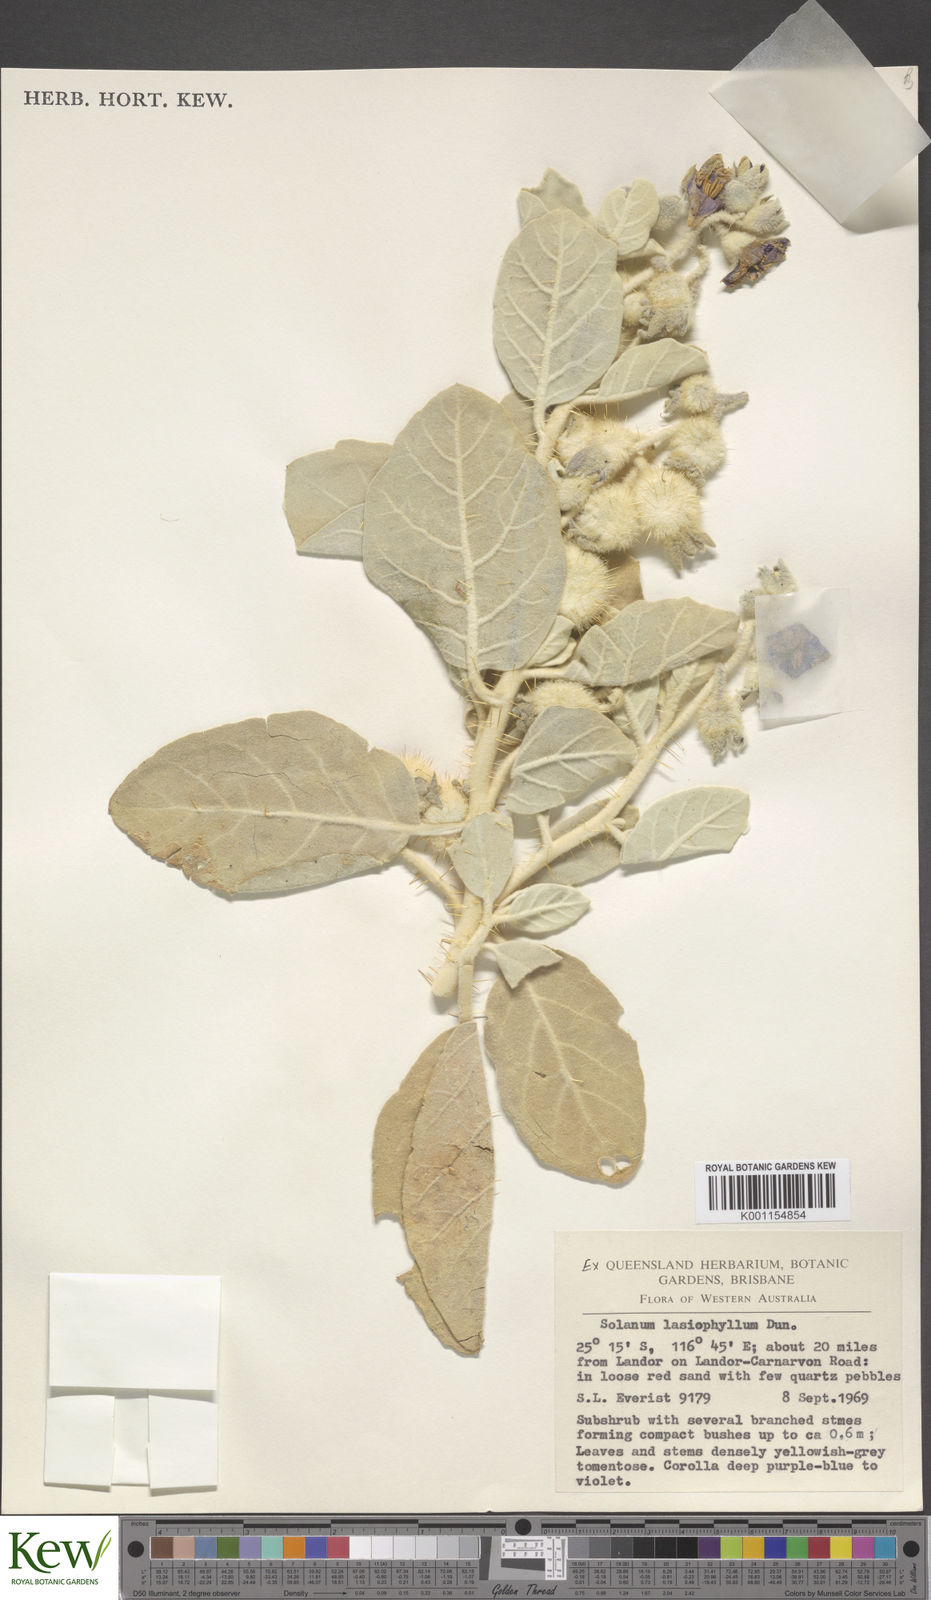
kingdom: Plantae
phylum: Tracheophyta
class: Magnoliopsida
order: Solanales
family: Solanaceae
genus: Solanum
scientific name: Solanum lasiophyllum
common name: Flannelbush
